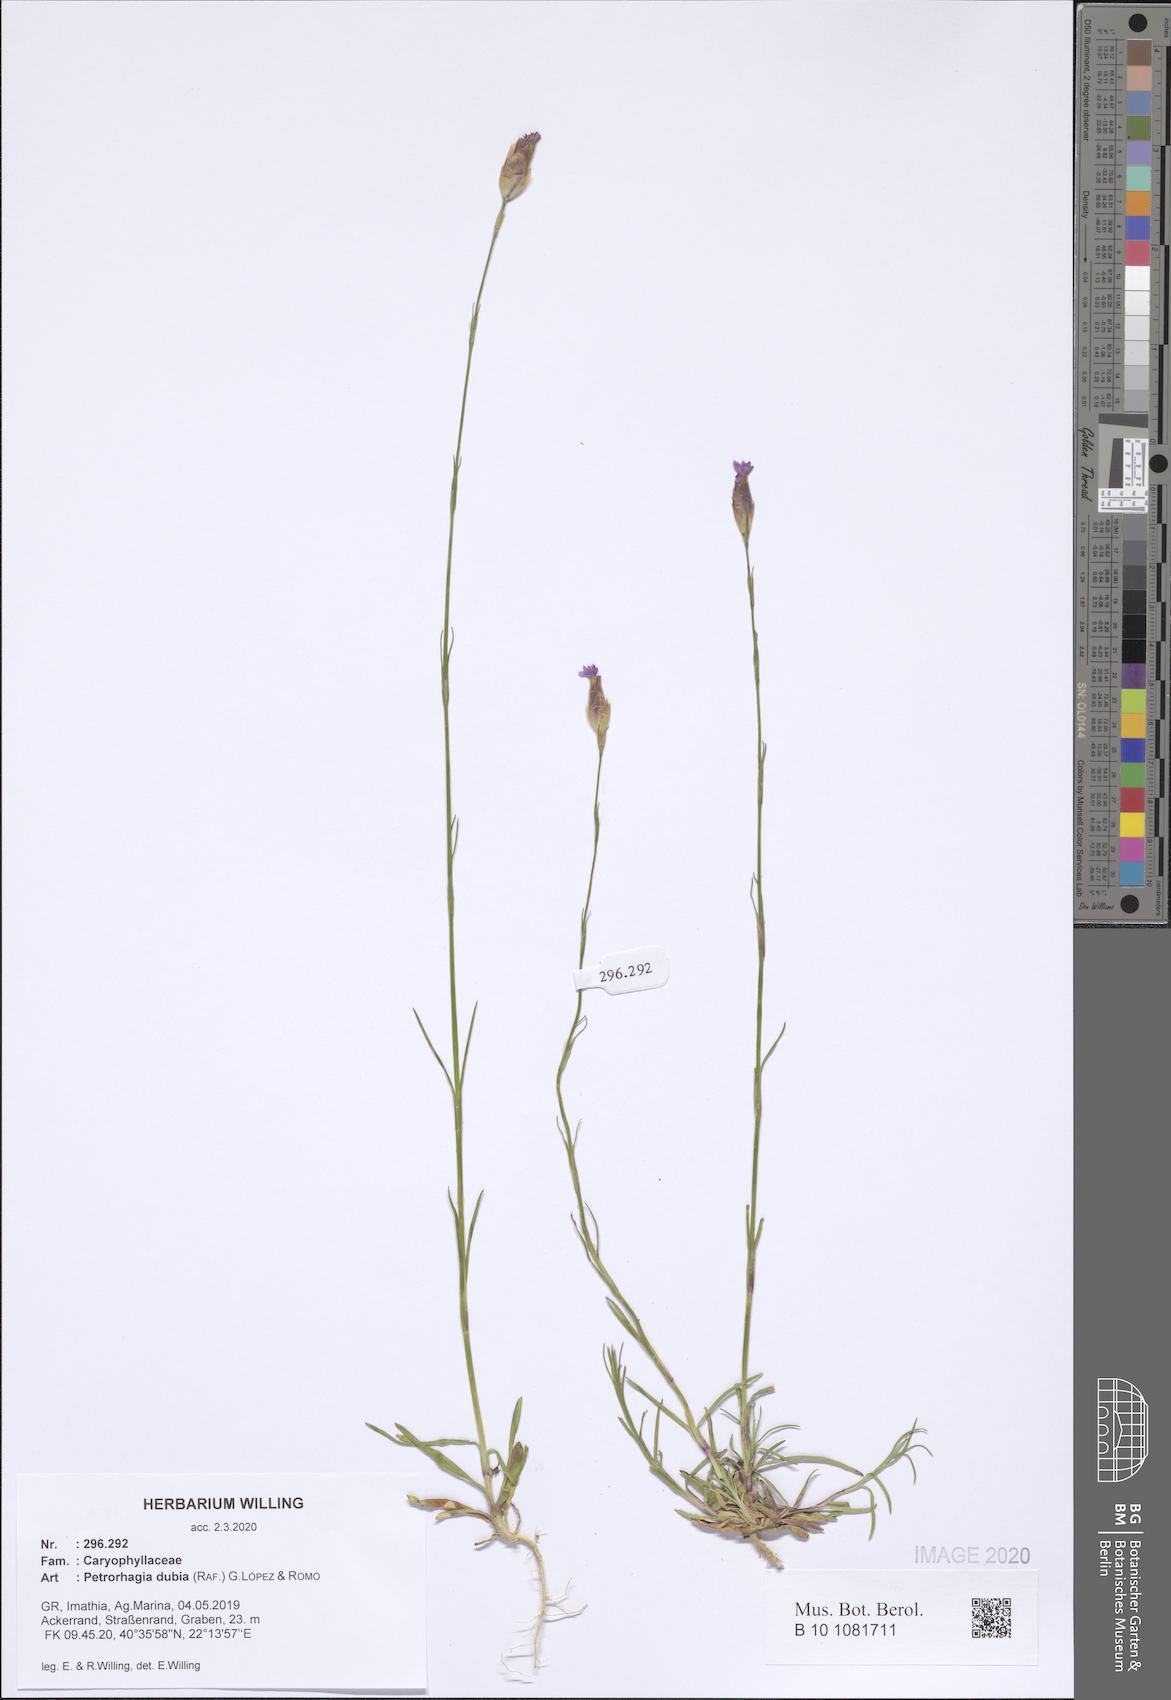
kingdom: Plantae
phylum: Tracheophyta
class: Magnoliopsida
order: Caryophyllales
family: Caryophyllaceae
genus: Petrorhagia
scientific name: Petrorhagia dubia
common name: Hairypink
